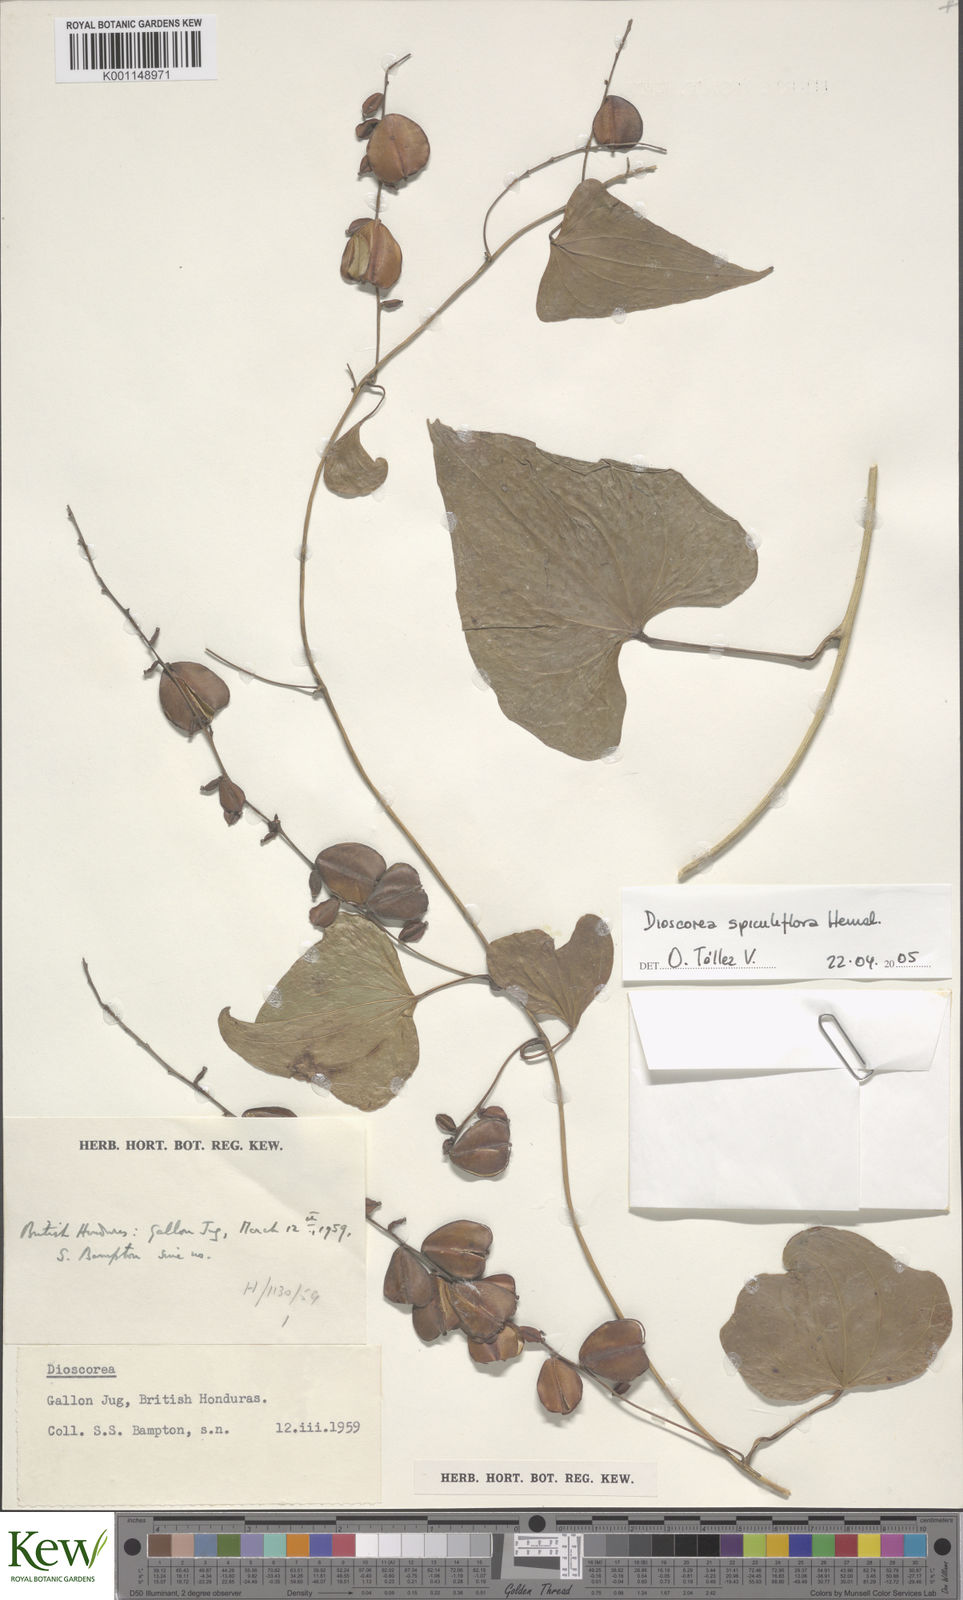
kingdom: Plantae
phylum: Tracheophyta
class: Liliopsida
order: Dioscoreales
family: Dioscoreaceae
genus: Dioscorea
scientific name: Dioscorea spiculiflora
